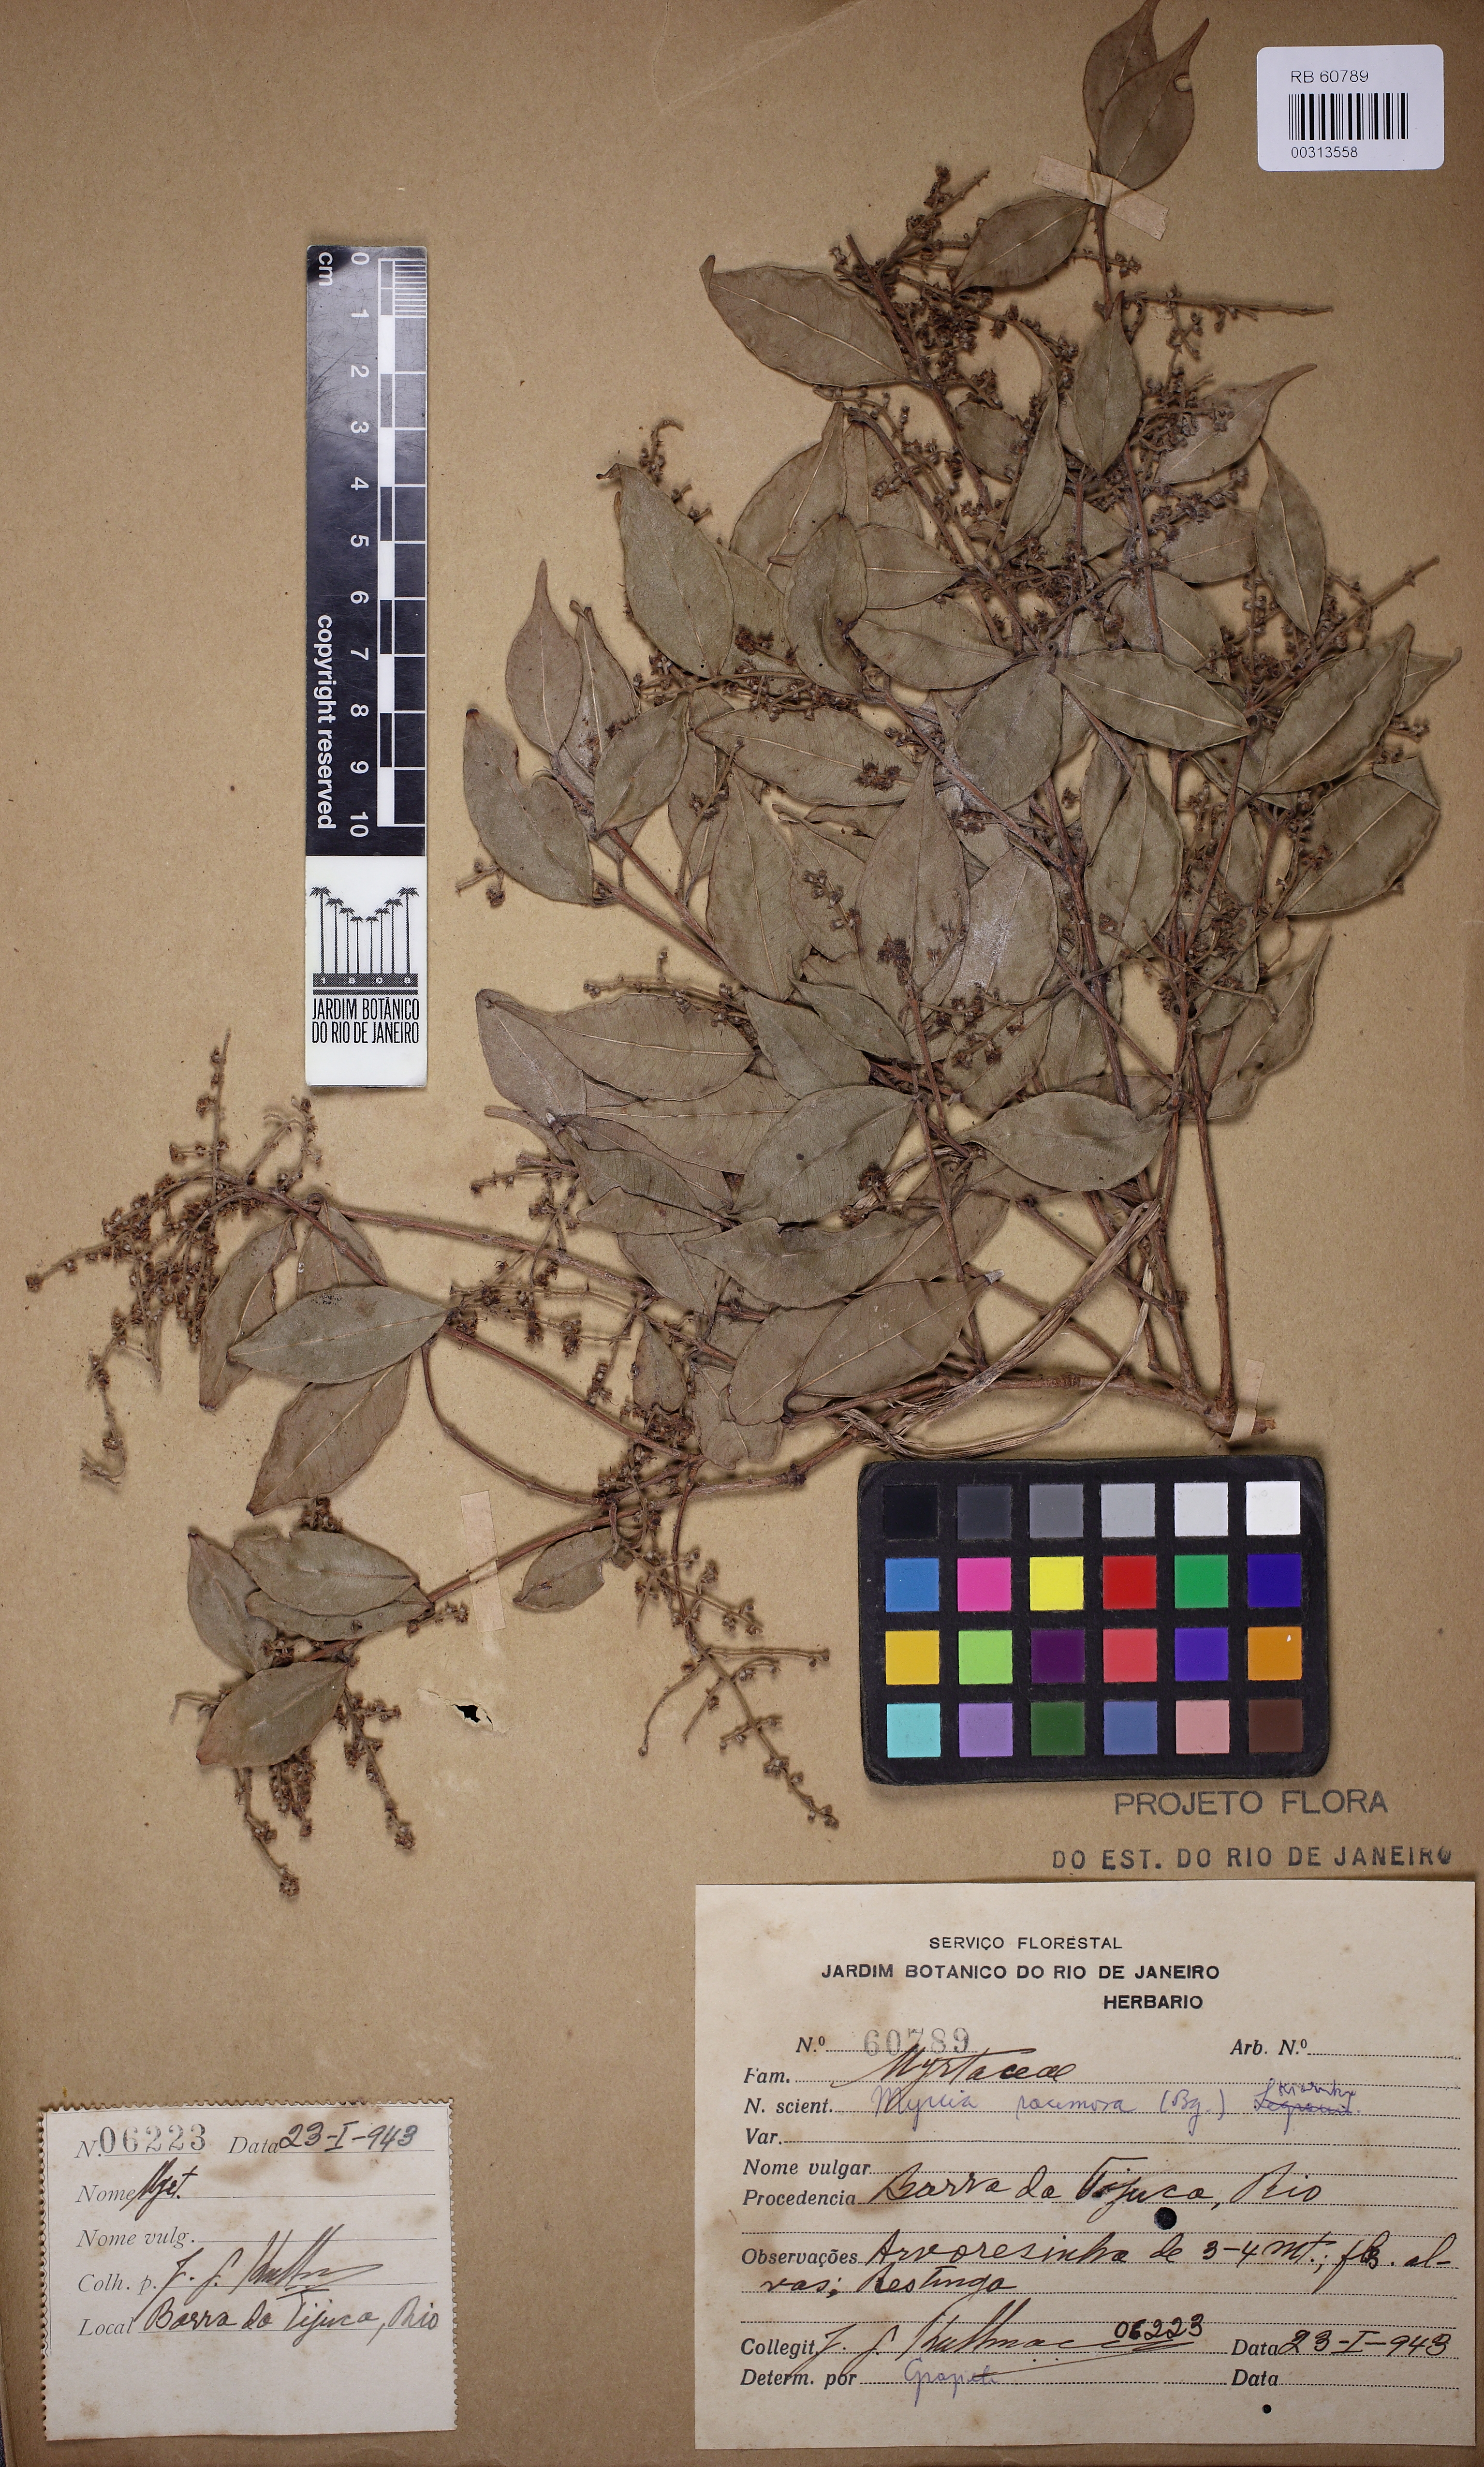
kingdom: Plantae
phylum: Tracheophyta
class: Magnoliopsida
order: Myrtales
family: Myrtaceae
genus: Myrcia
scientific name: Myrcia racemosa
